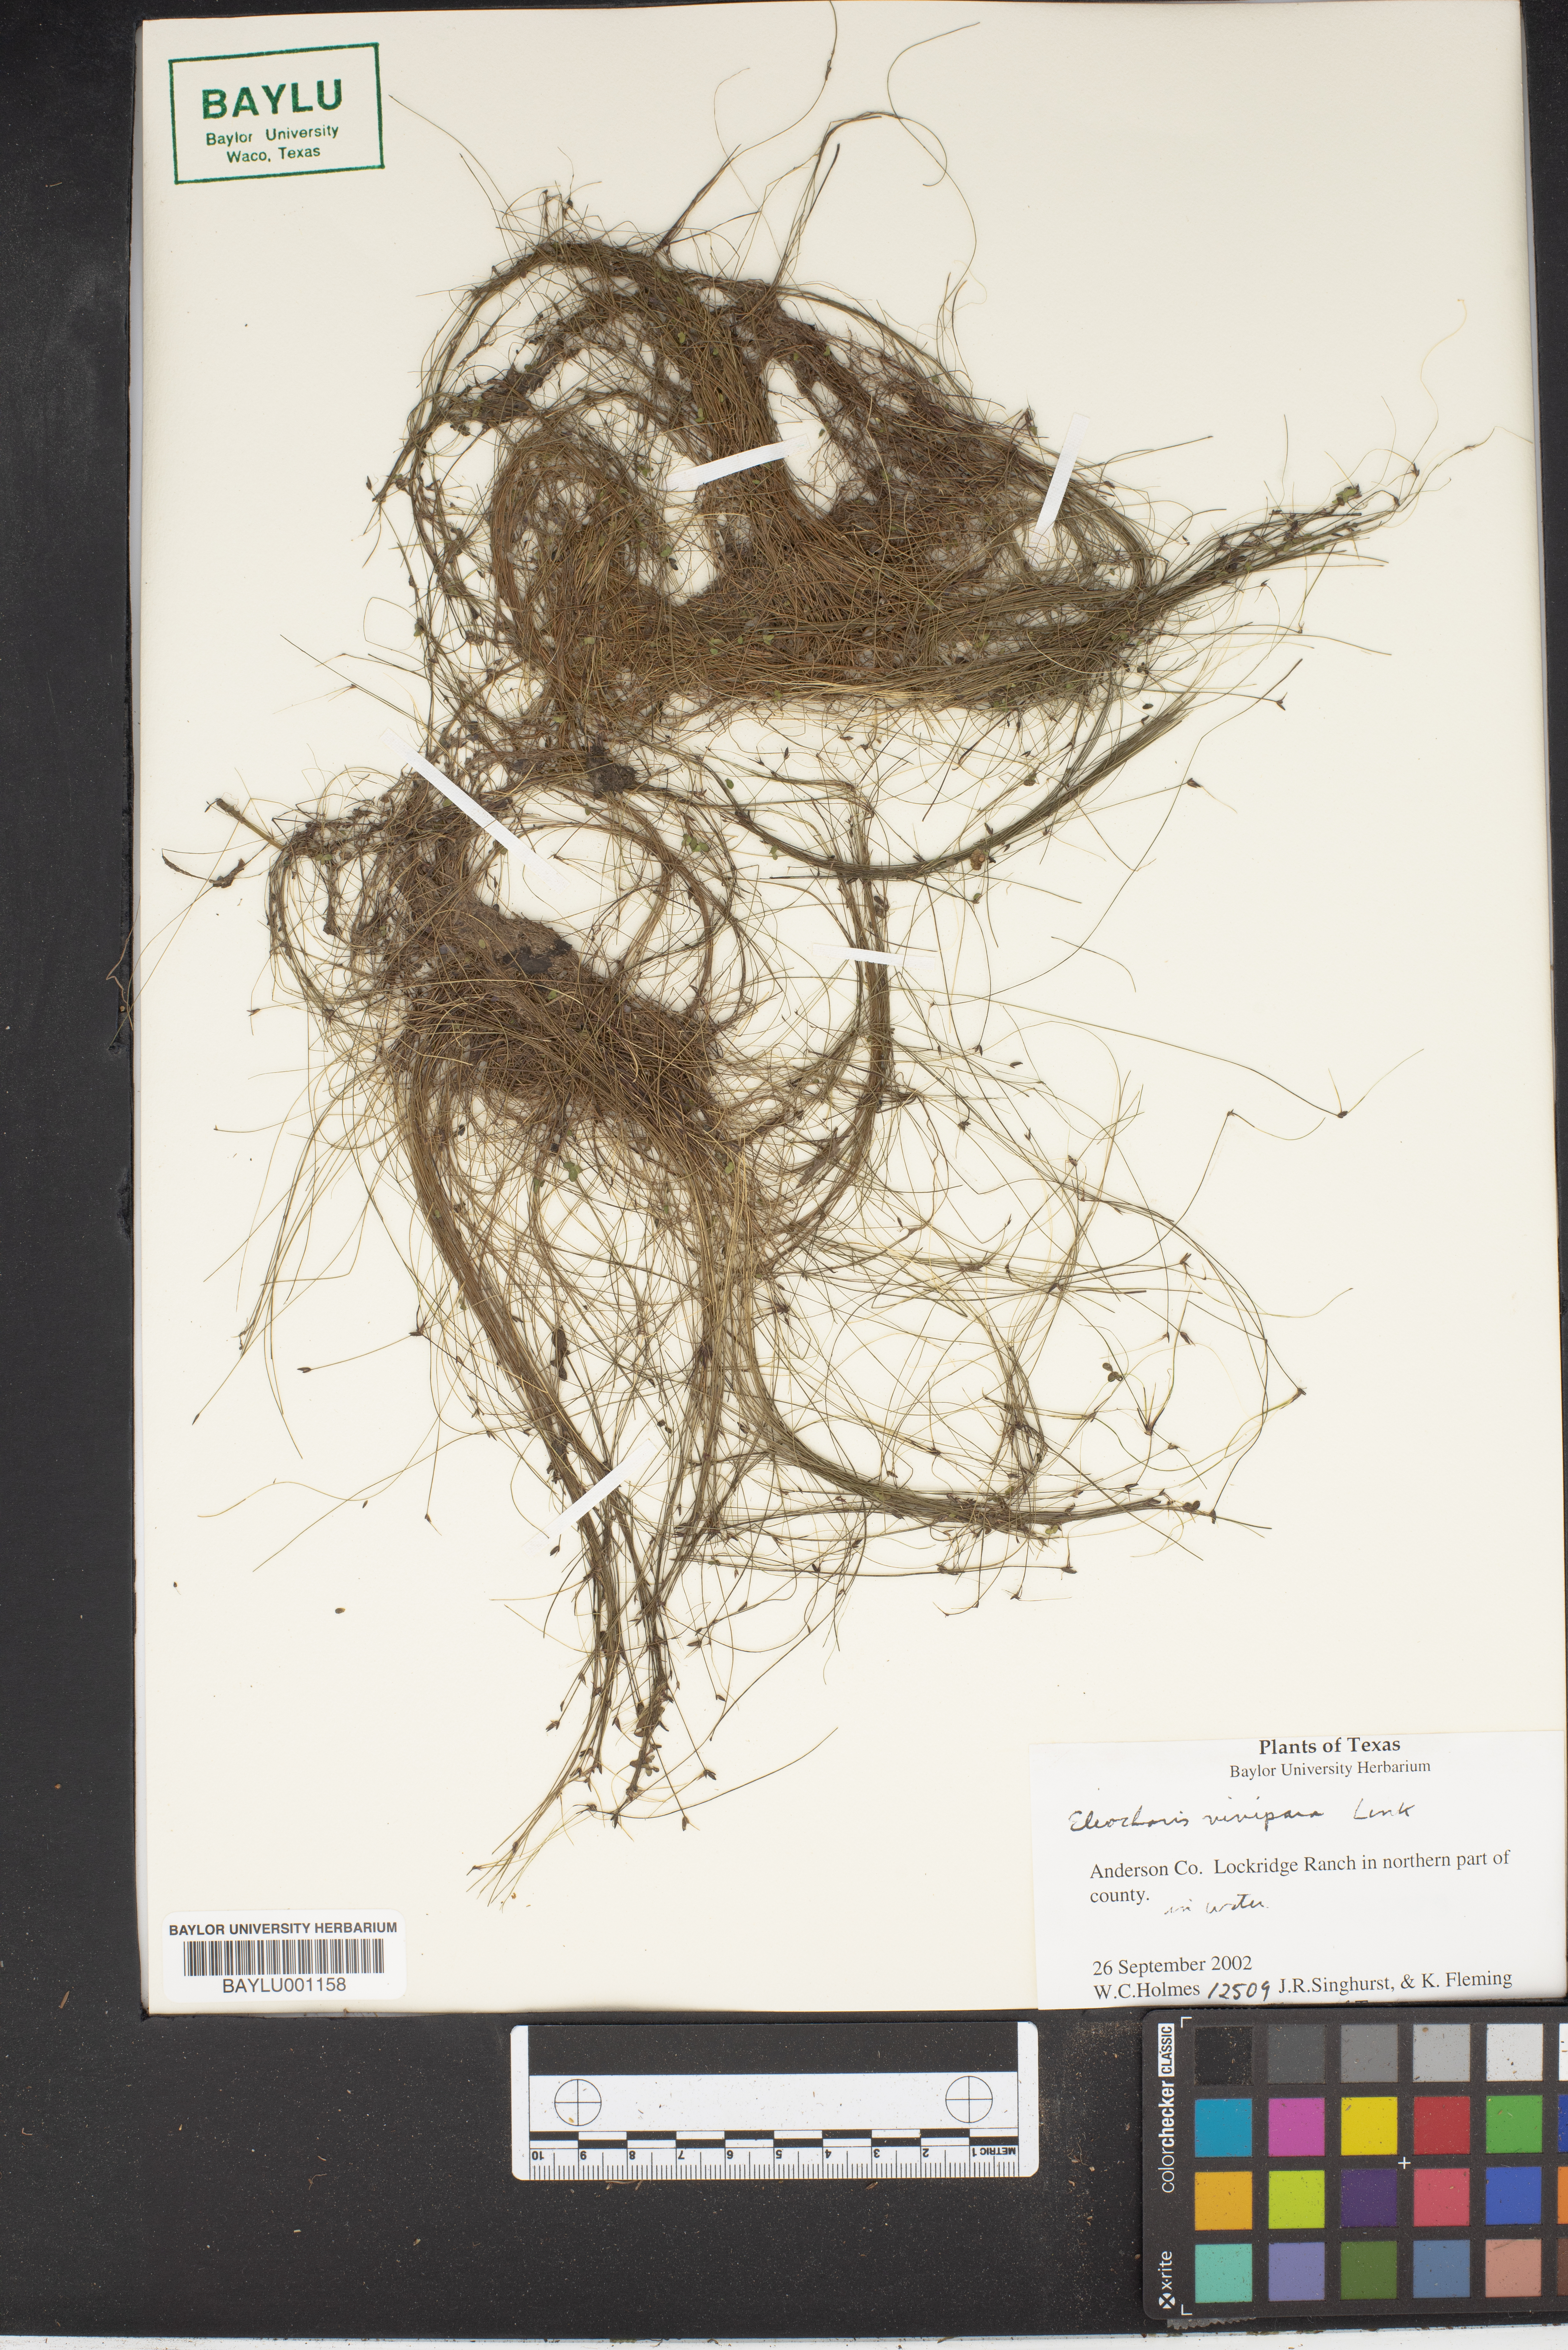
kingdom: Plantae
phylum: Tracheophyta
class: Liliopsida
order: Poales
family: Cyperaceae
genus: Eleocharis
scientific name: Eleocharis vivipara
